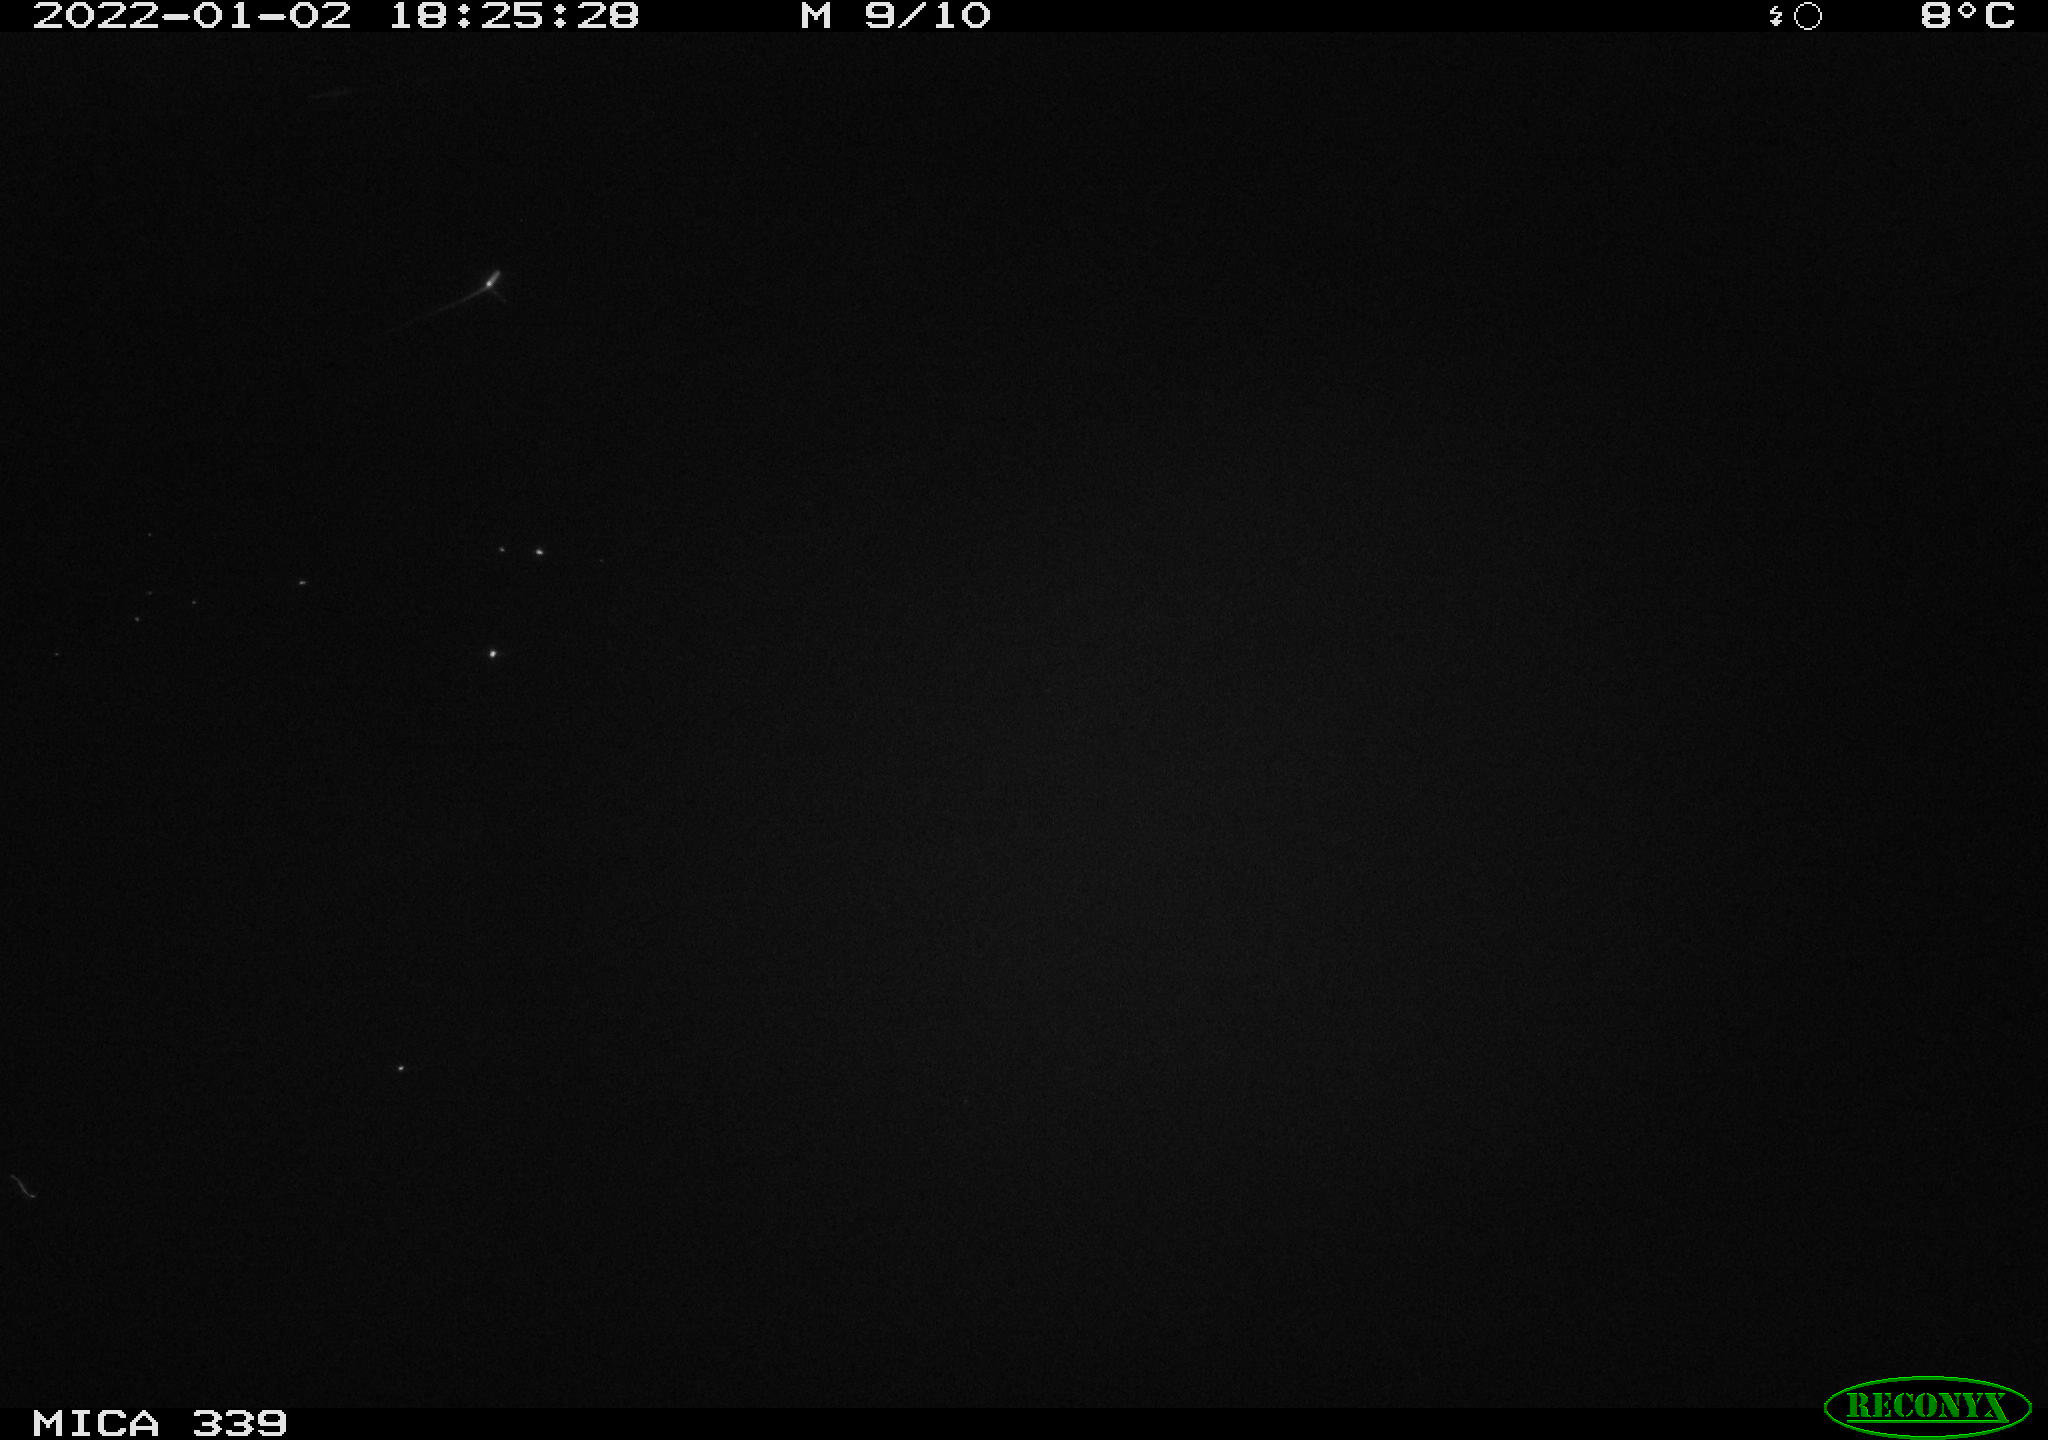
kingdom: Animalia
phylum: Chordata
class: Aves
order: Gruiformes
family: Rallidae
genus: Gallinula
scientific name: Gallinula chloropus
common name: Common moorhen
